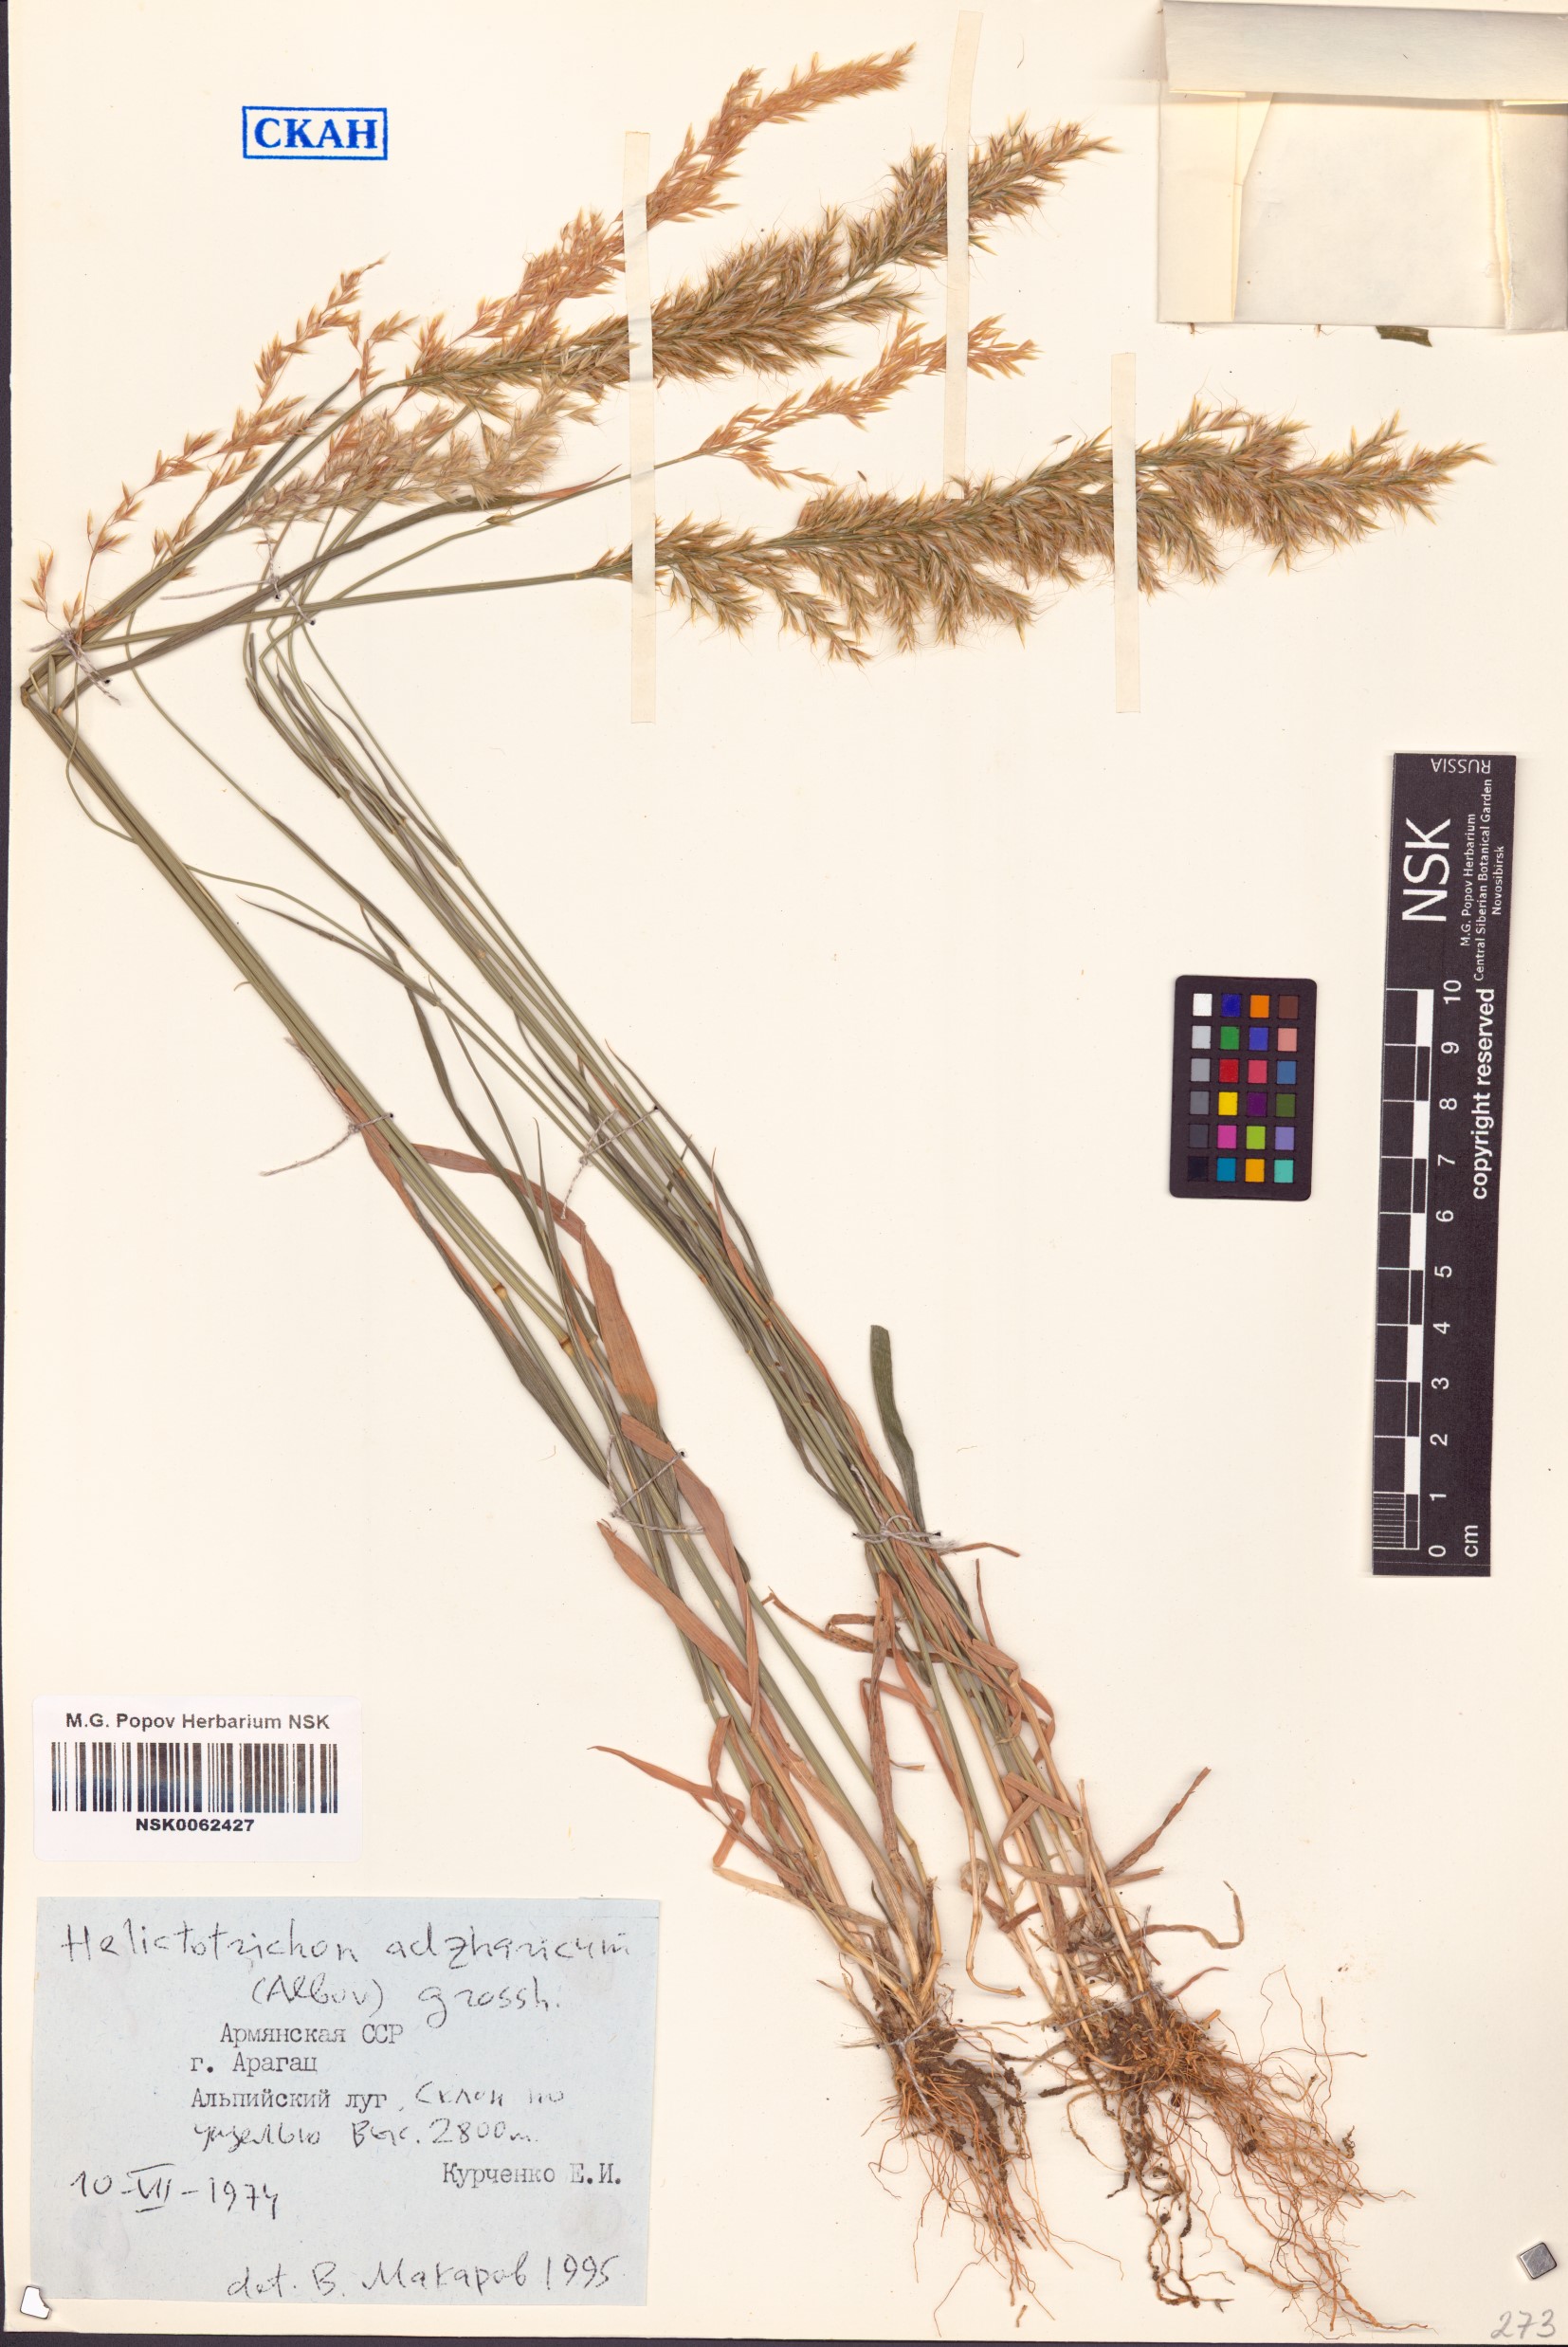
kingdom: Plantae
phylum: Tracheophyta
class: Liliopsida
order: Poales
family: Poaceae
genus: Helictochloa
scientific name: Helictochloa versicolor
